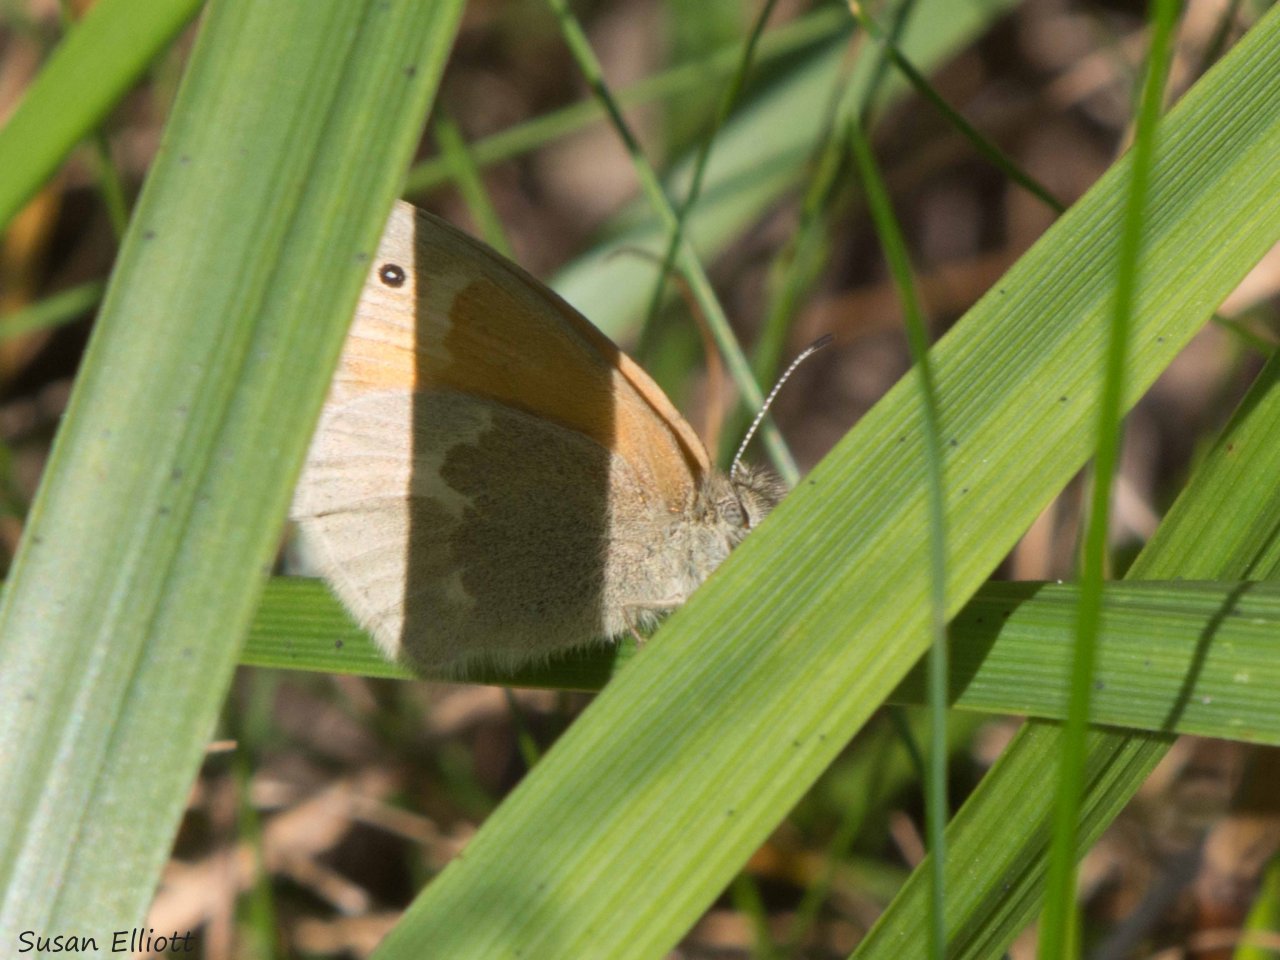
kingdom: Animalia
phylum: Arthropoda
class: Insecta
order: Lepidoptera
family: Nymphalidae
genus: Coenonympha
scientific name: Coenonympha tullia
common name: Large Heath
